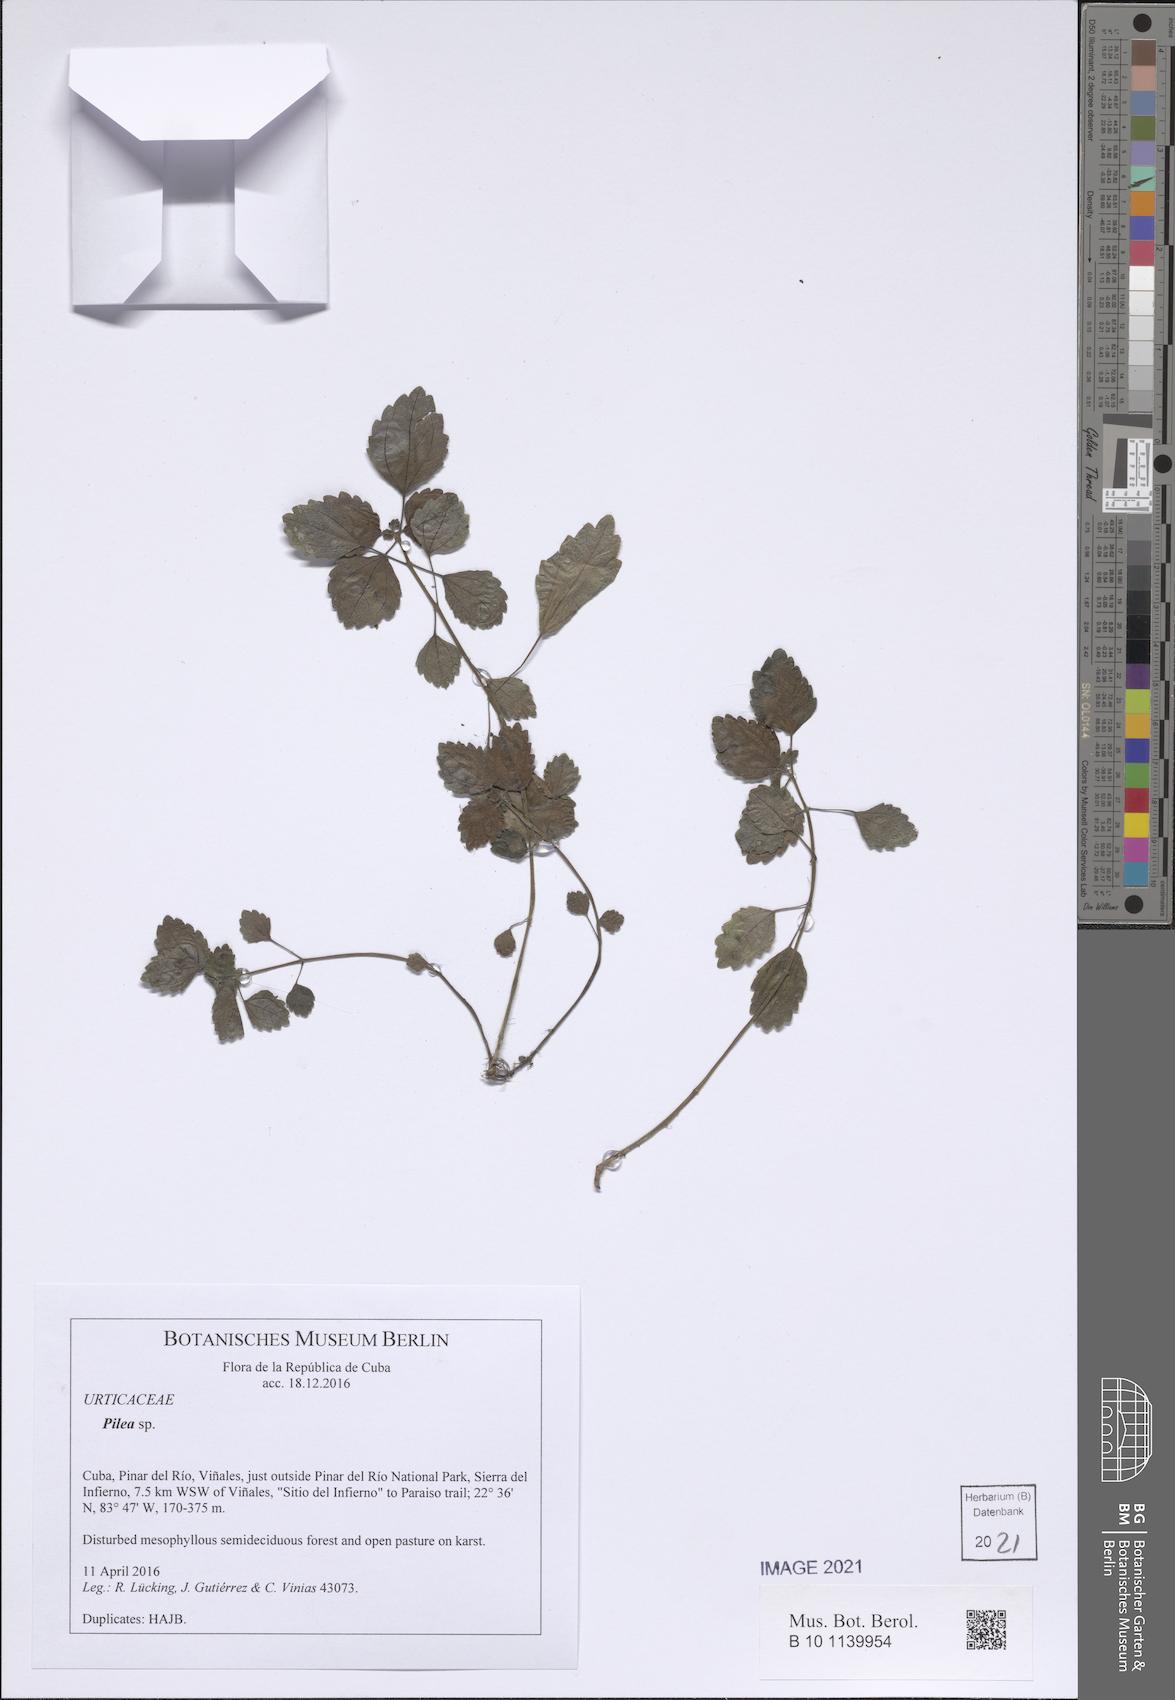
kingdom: Plantae
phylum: Tracheophyta
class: Magnoliopsida
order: Rosales
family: Urticaceae
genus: Pilea
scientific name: Pilea
